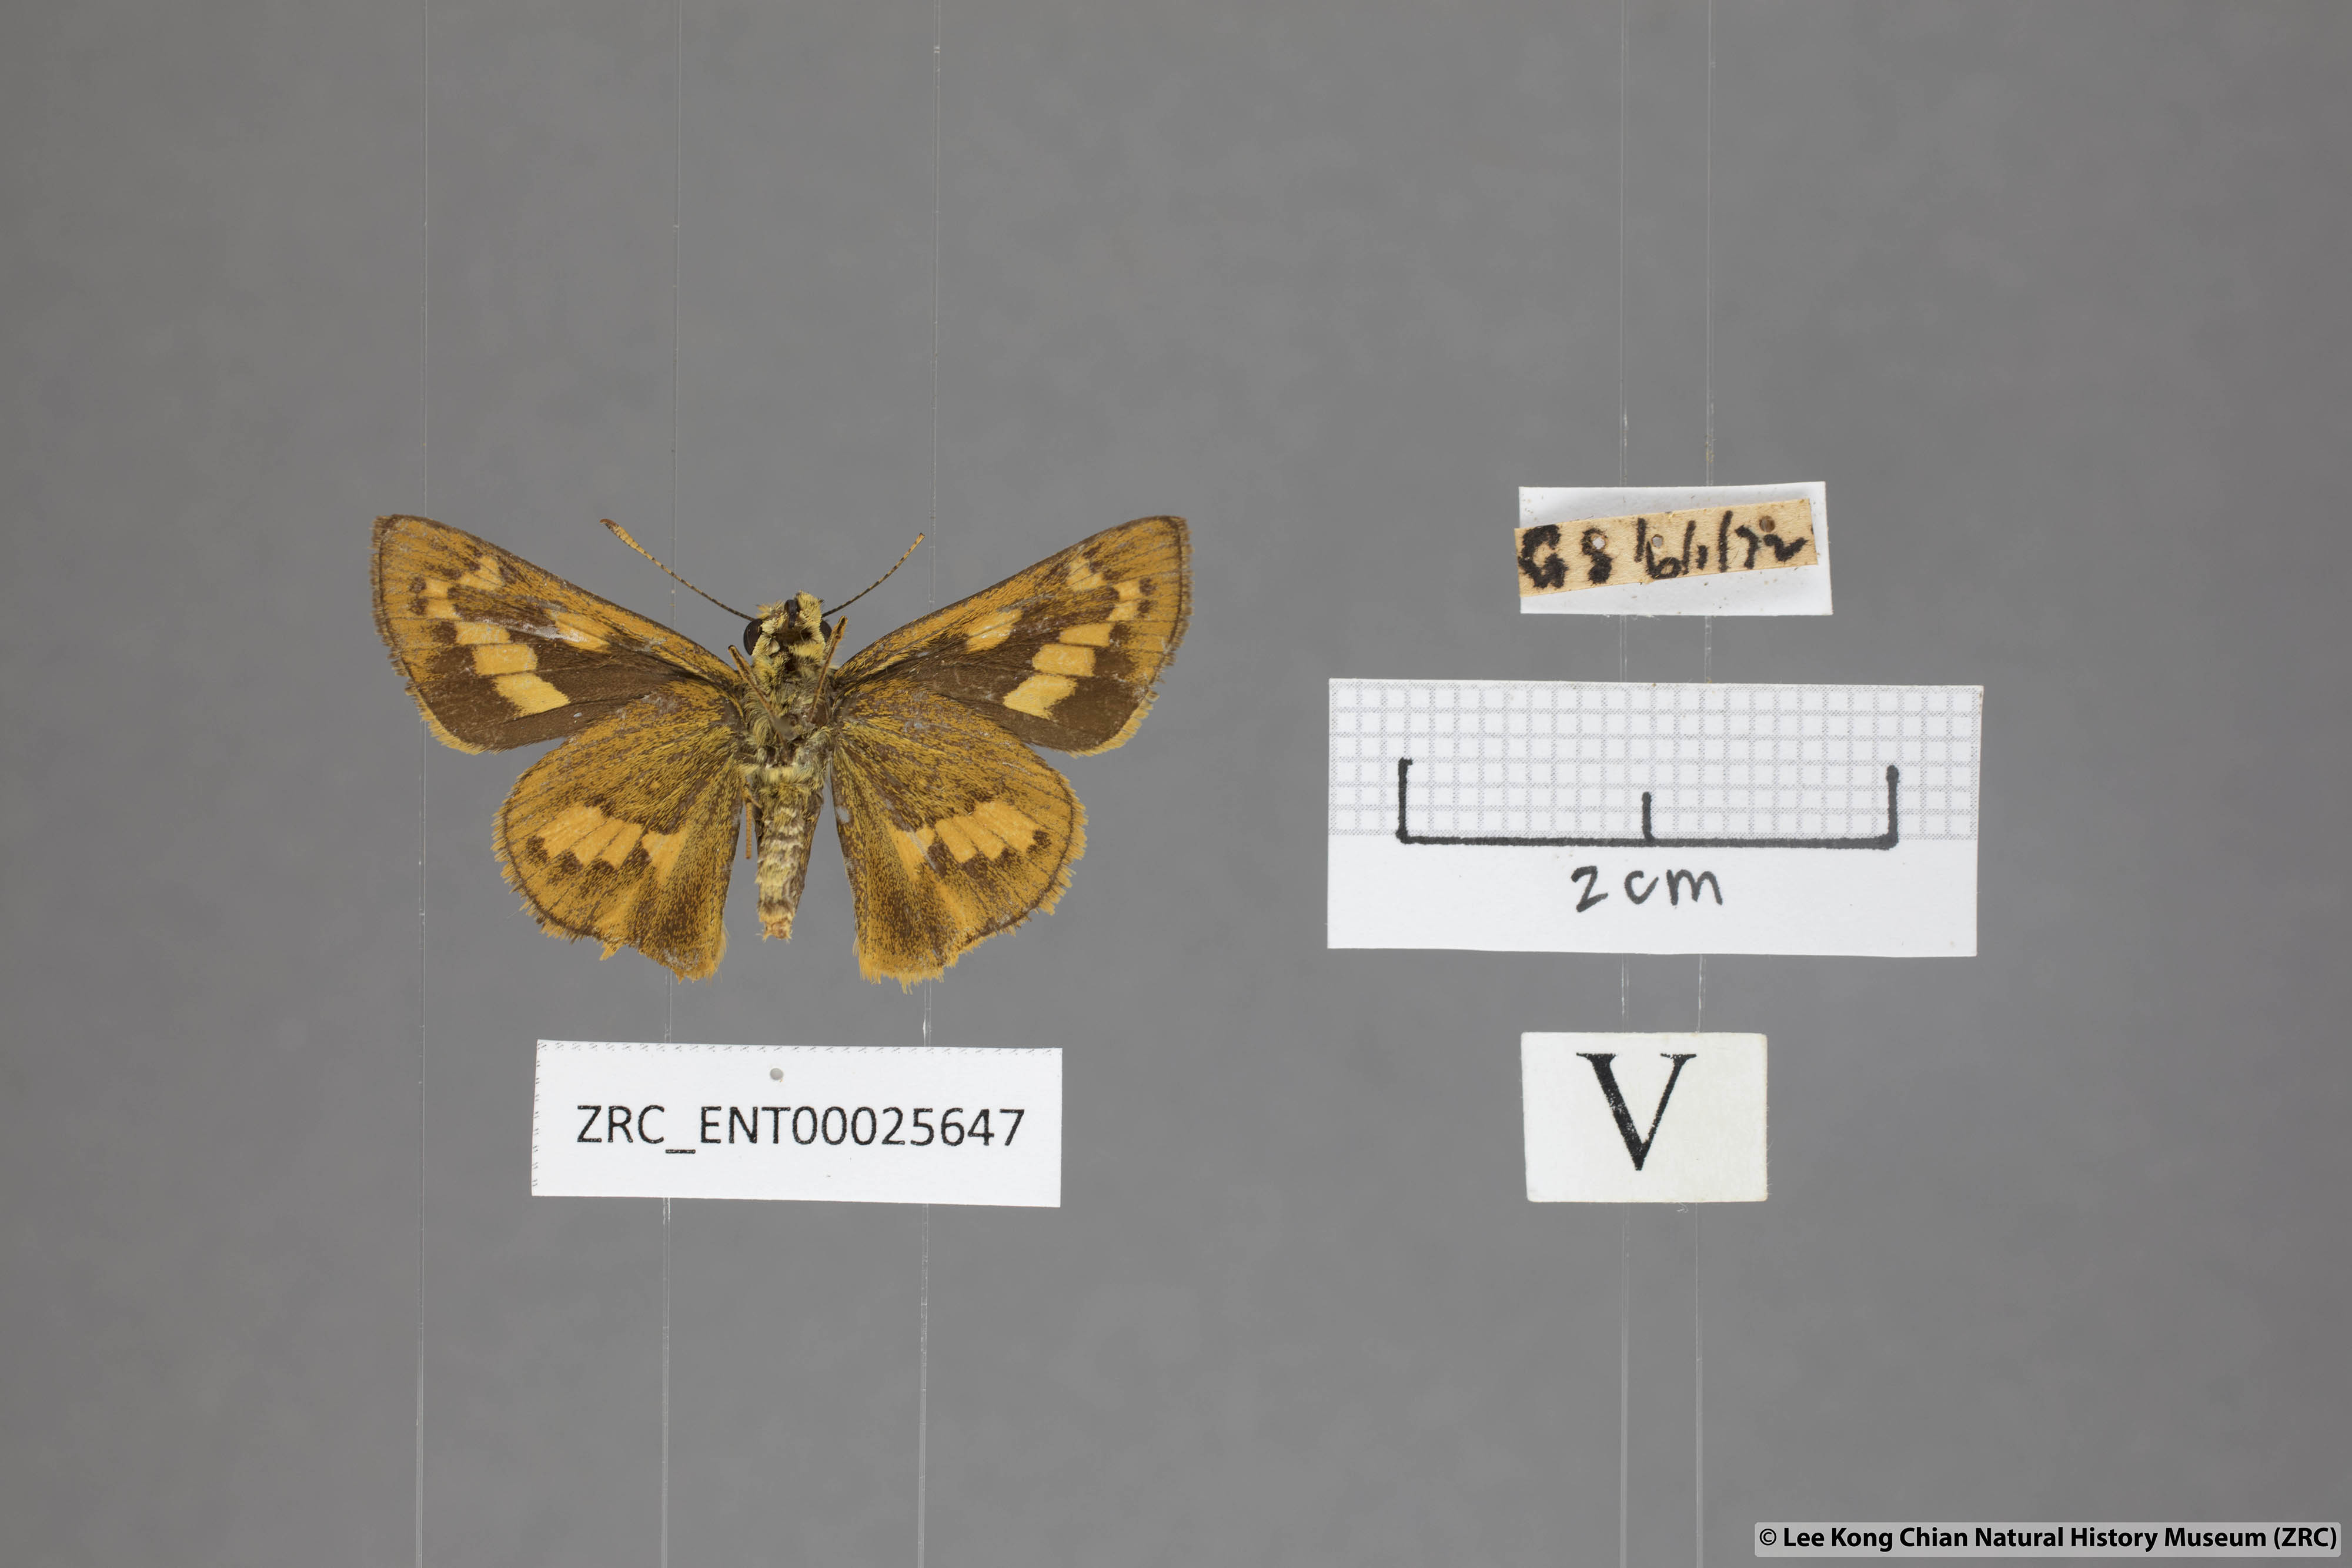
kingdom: Animalia
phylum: Arthropoda
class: Insecta
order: Lepidoptera
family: Hesperiidae
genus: Telicota
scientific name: Telicota besta
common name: Hainan palm dart
